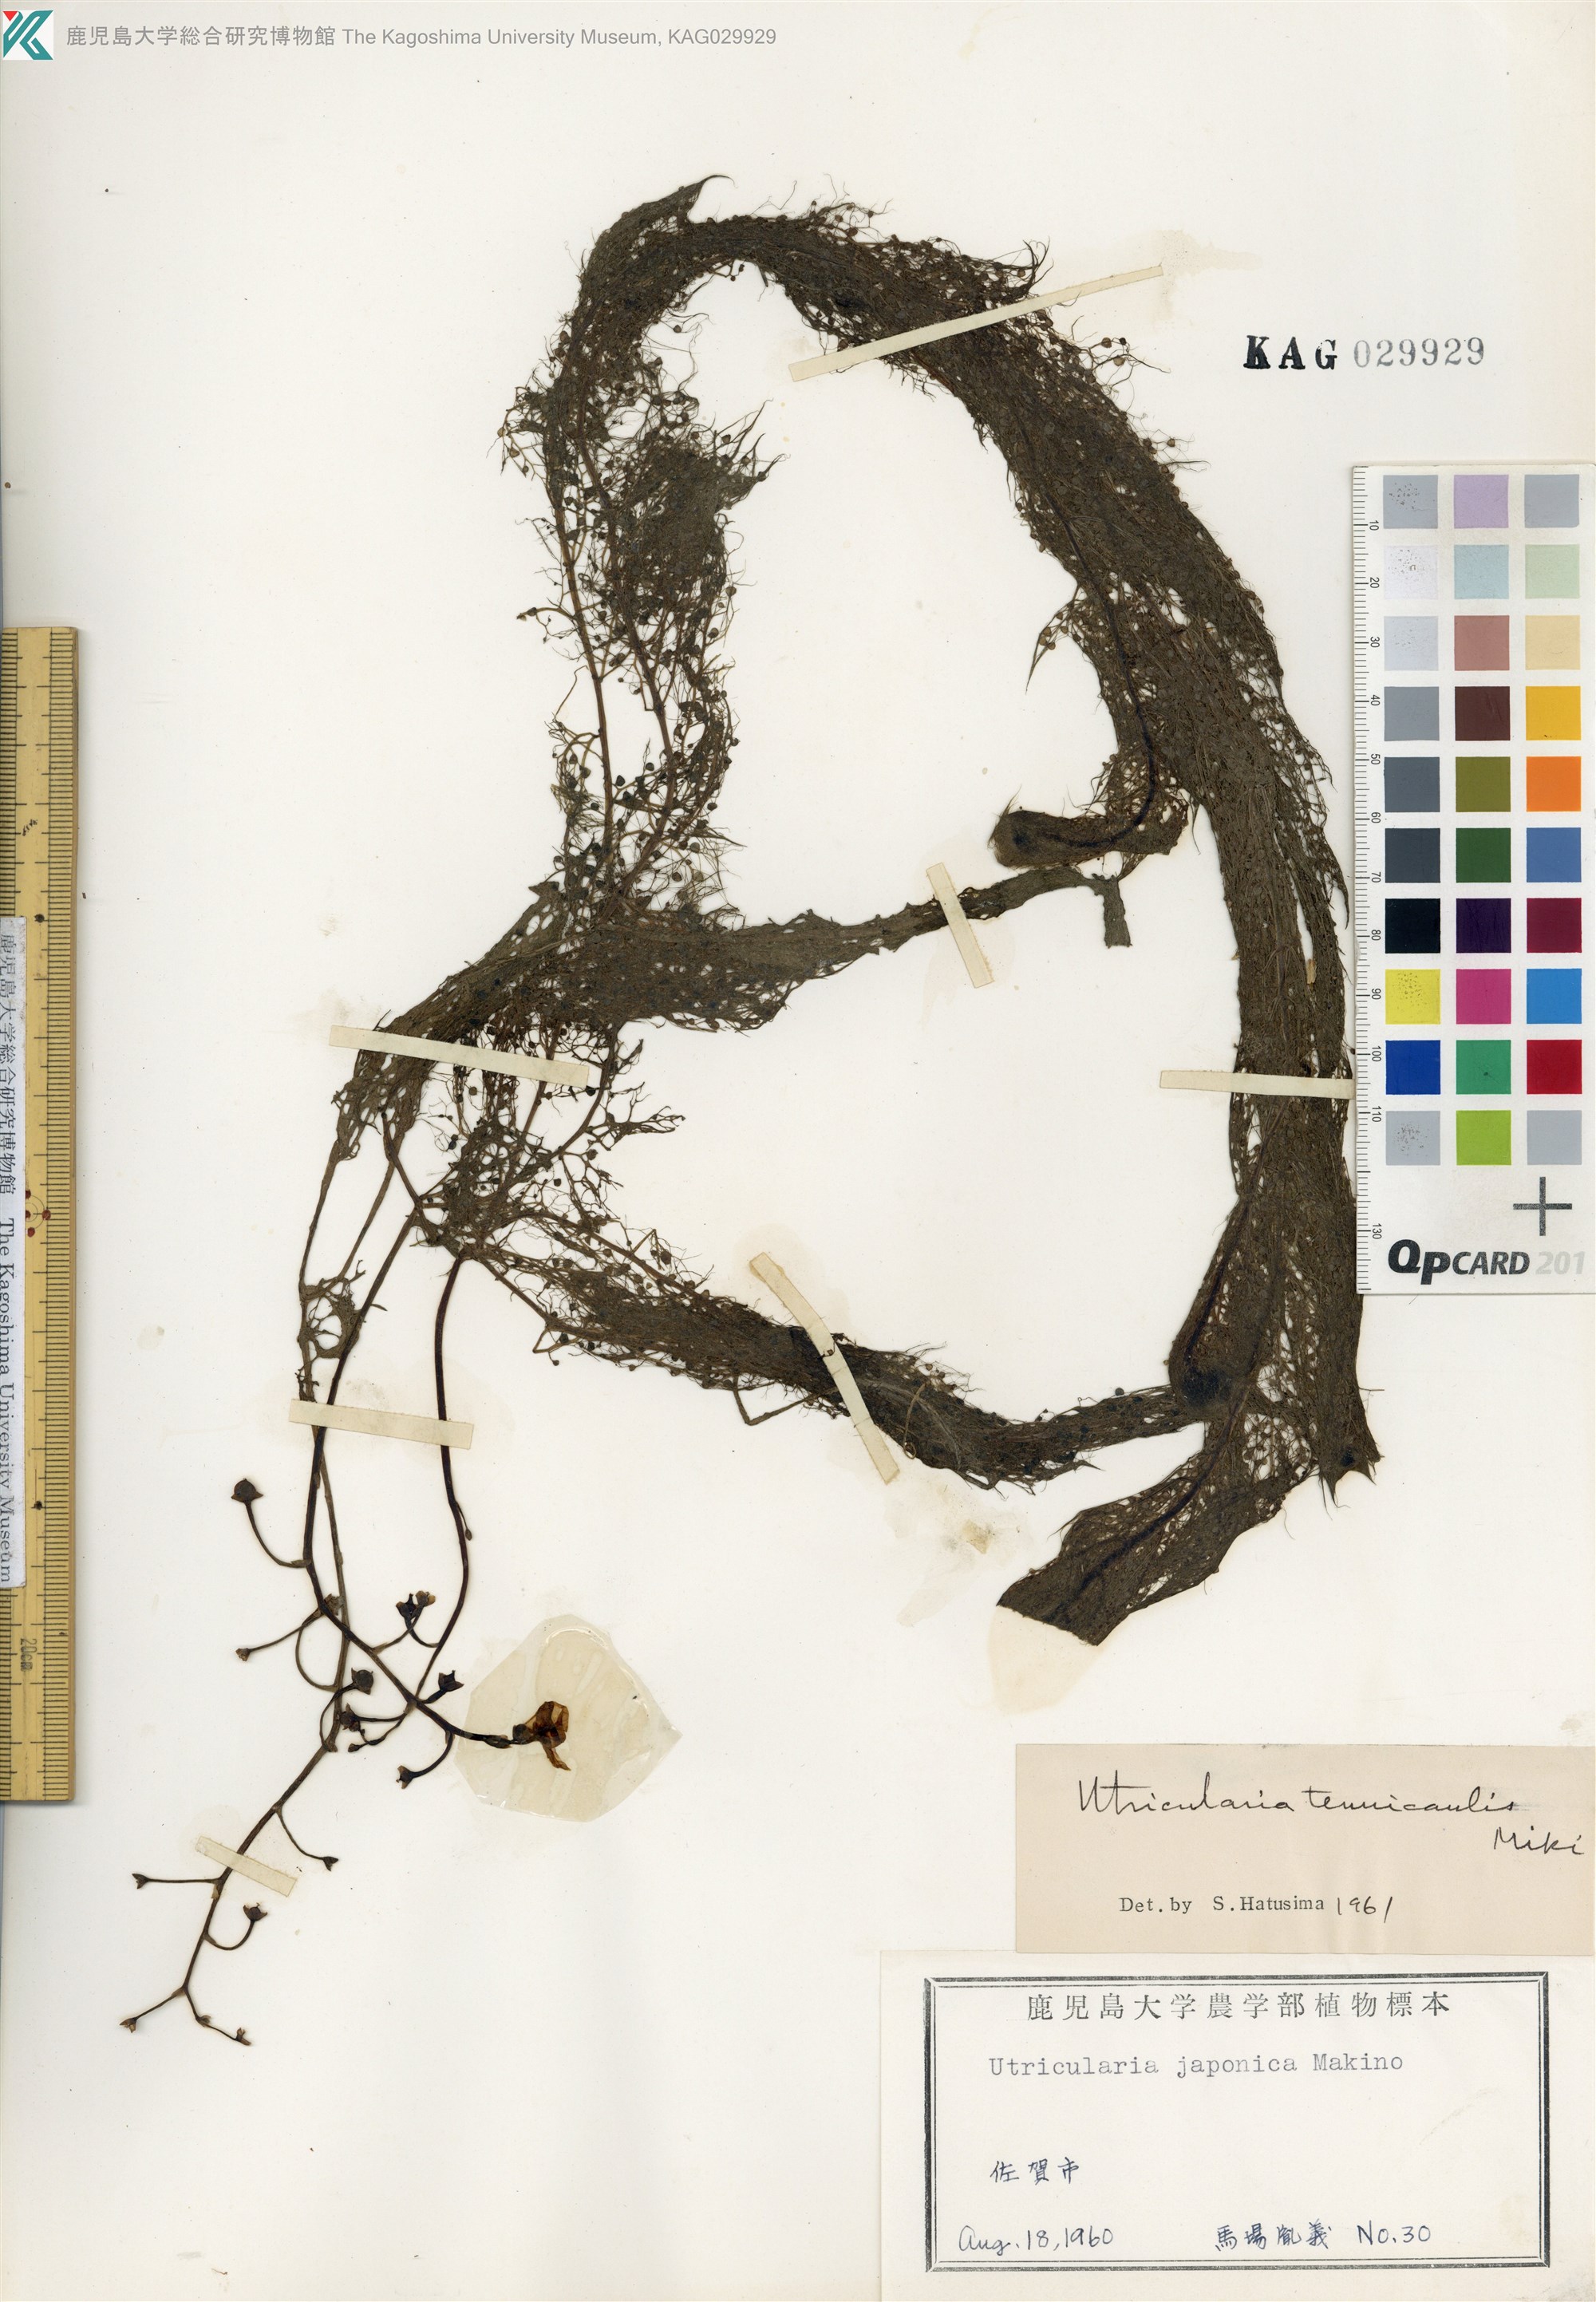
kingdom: Plantae
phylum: Tracheophyta
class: Magnoliopsida
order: Lamiales
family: Lentibulariaceae
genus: Utricularia
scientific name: Utricularia australis
